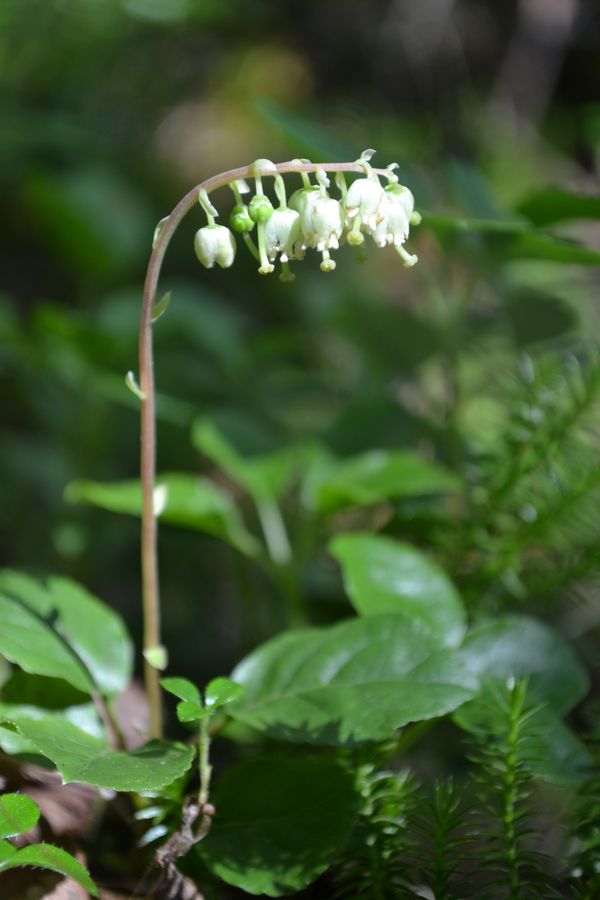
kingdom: Plantae
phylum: Tracheophyta
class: Magnoliopsida
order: Ericales
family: Ericaceae
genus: Orthilia
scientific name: Orthilia secunda
